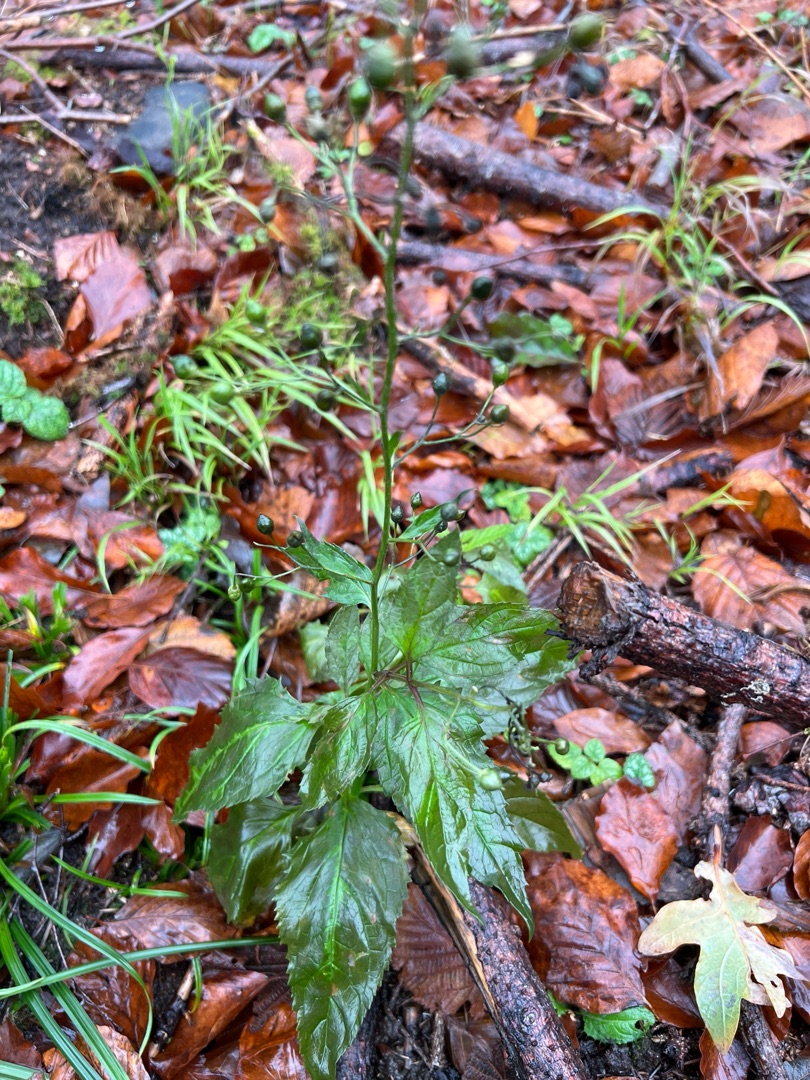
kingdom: Plantae
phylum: Tracheophyta
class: Magnoliopsida
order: Lamiales
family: Scrophulariaceae
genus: Scrophularia
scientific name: Scrophularia nodosa
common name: Knoldet brunrod
